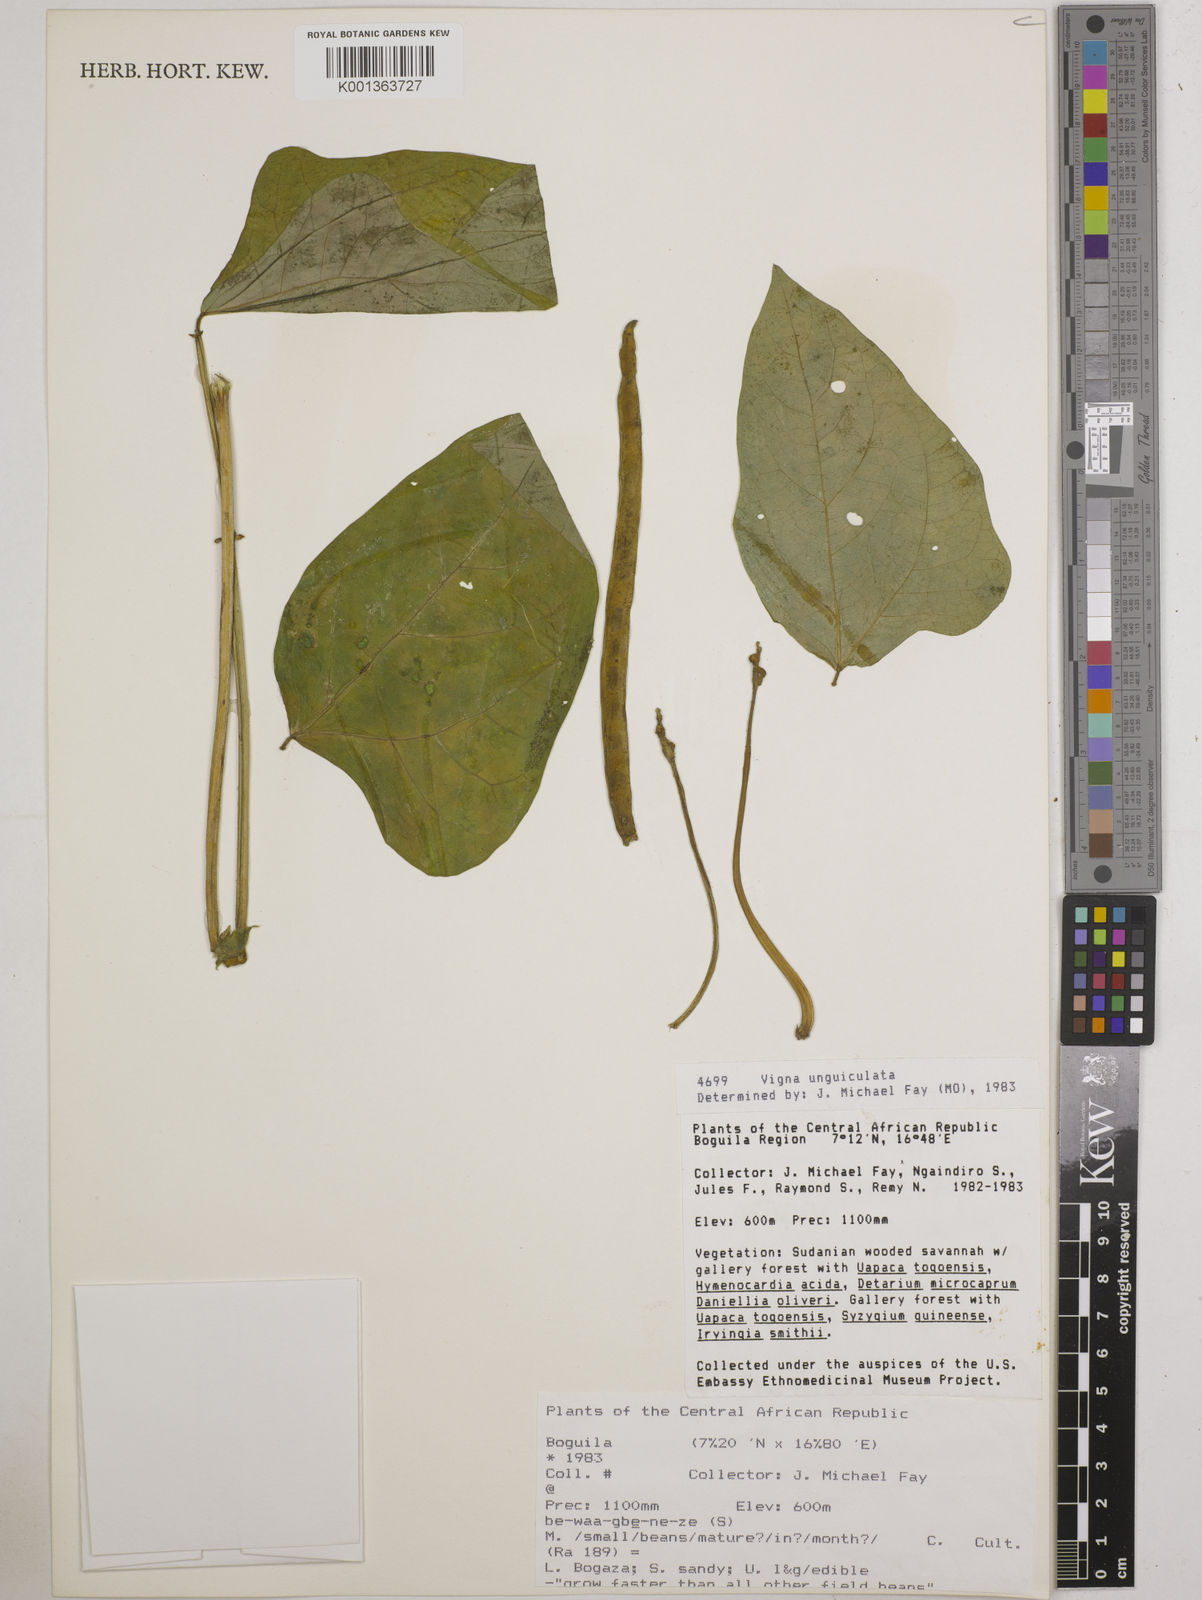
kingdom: Plantae
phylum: Tracheophyta
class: Magnoliopsida
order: Fabales
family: Fabaceae
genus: Vigna
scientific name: Vigna unguiculata
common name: Cowpea
